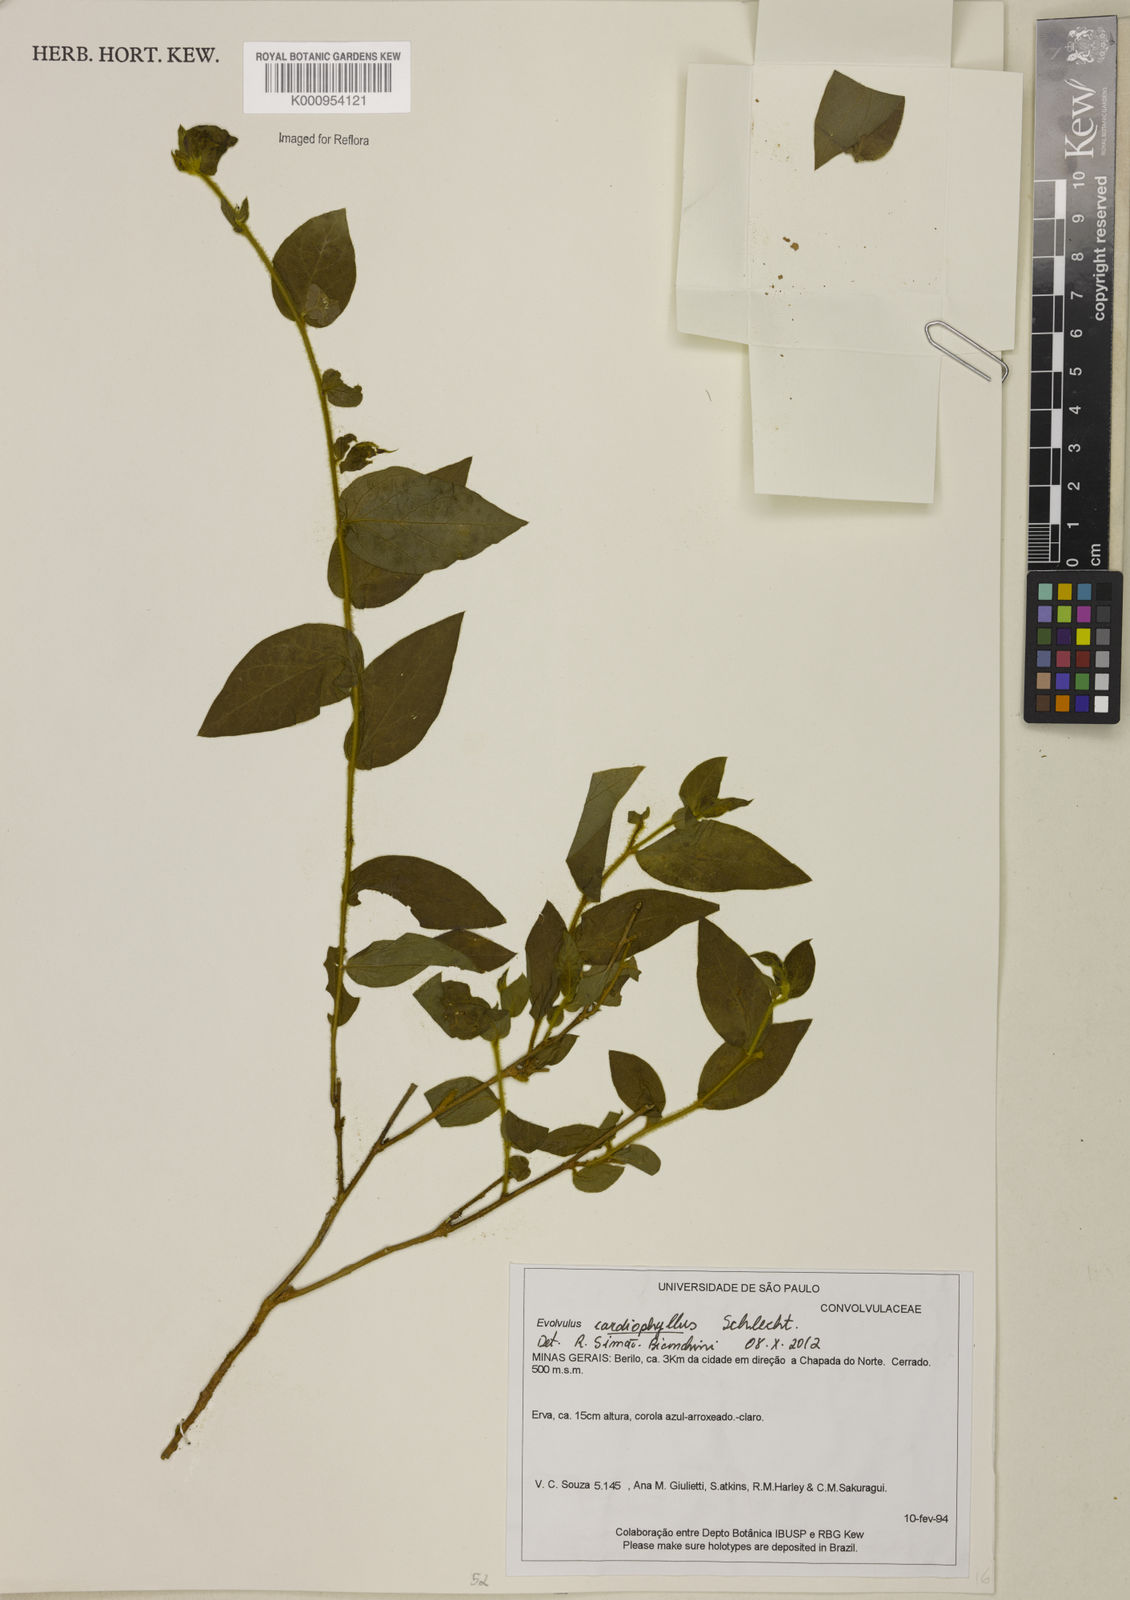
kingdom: Plantae
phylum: Tracheophyta
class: Magnoliopsida
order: Solanales
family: Convolvulaceae
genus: Evolvulus
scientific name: Evolvulus cardiophyllus
